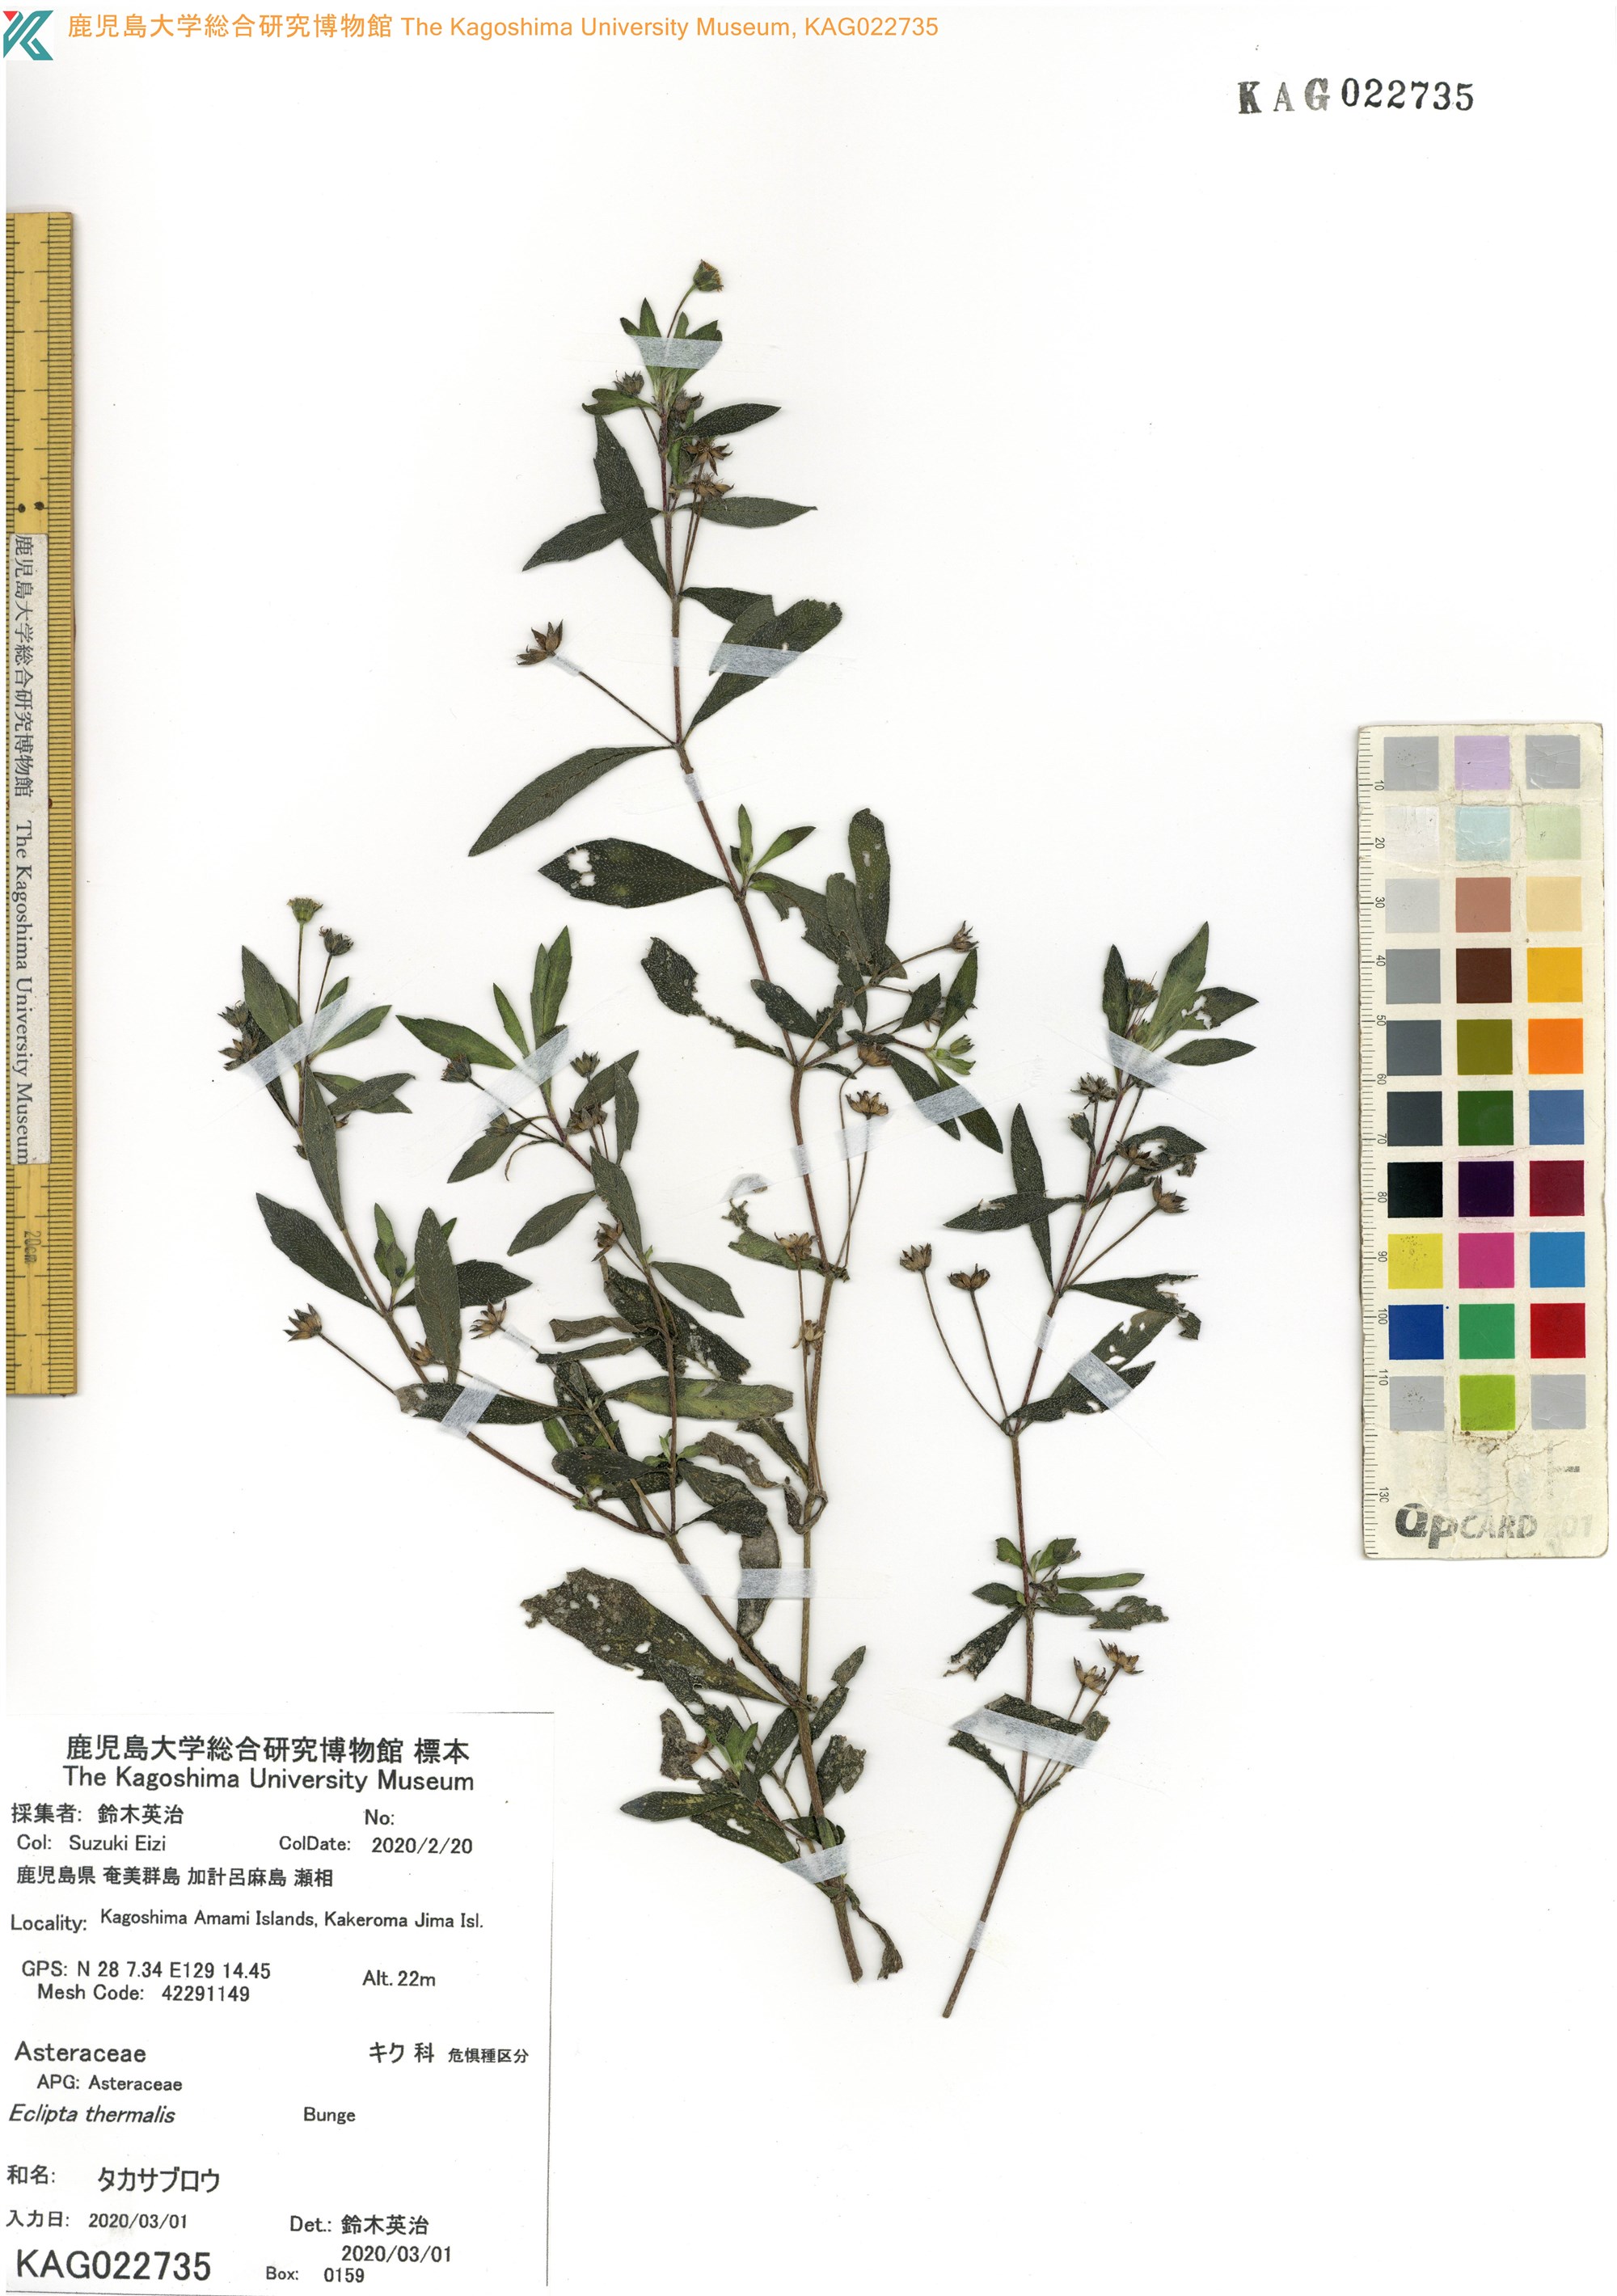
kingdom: Plantae
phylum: Tracheophyta
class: Magnoliopsida
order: Asterales
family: Asteraceae
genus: Eclipta
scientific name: Eclipta thermalis
